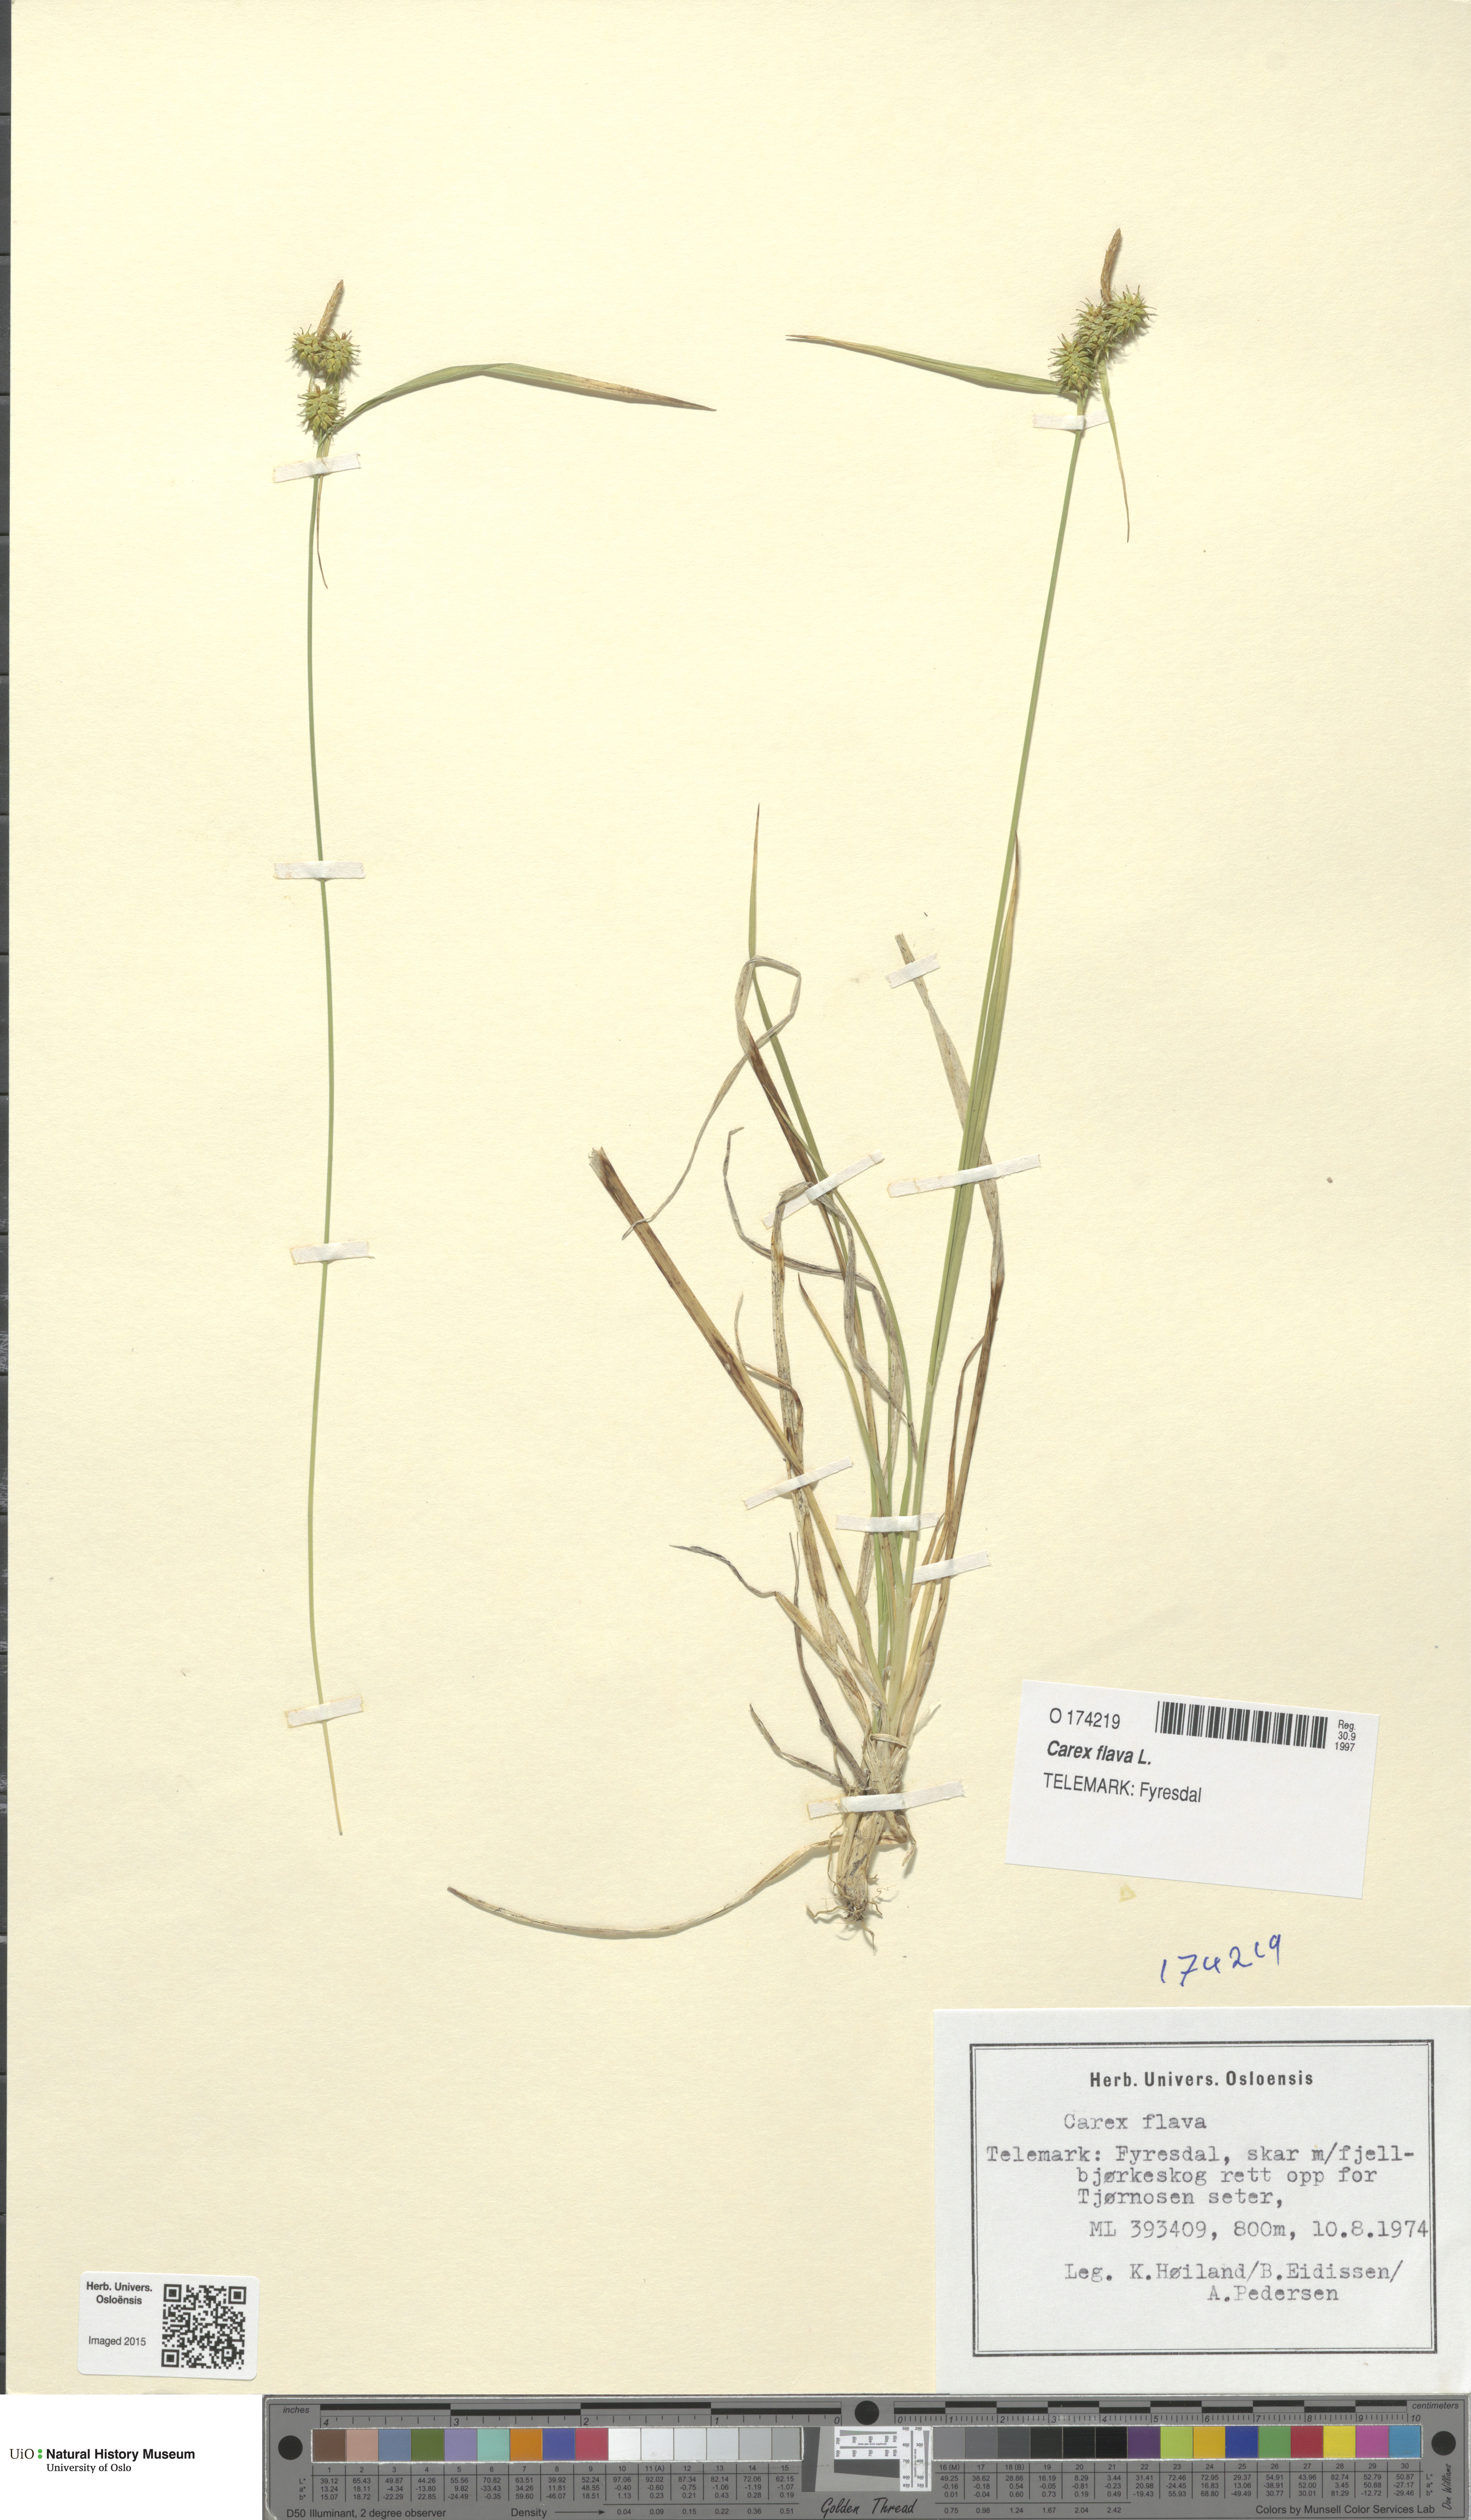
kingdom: Plantae
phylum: Tracheophyta
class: Liliopsida
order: Poales
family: Cyperaceae
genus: Carex
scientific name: Carex flava
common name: Large yellow-sedge
